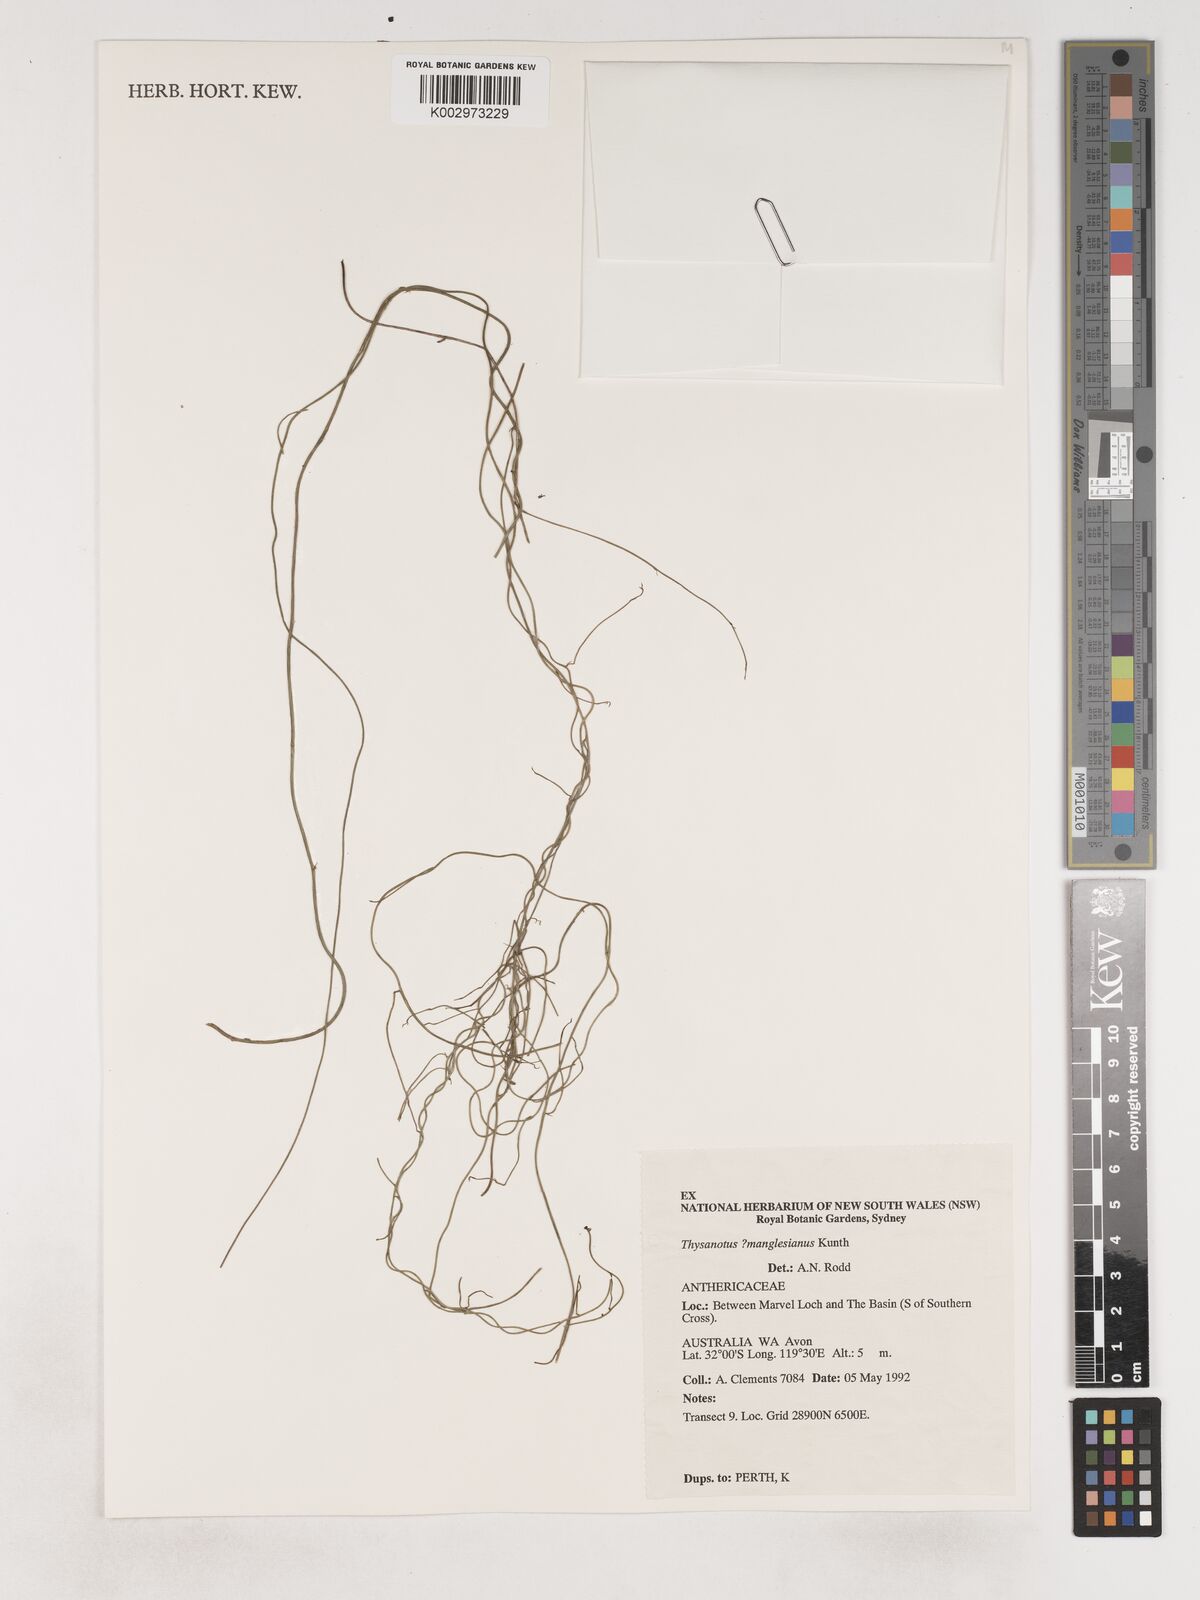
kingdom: Plantae
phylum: Tracheophyta
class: Liliopsida
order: Asparagales
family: Asparagaceae
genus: Thysanotus
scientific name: Thysanotus manglesianus
